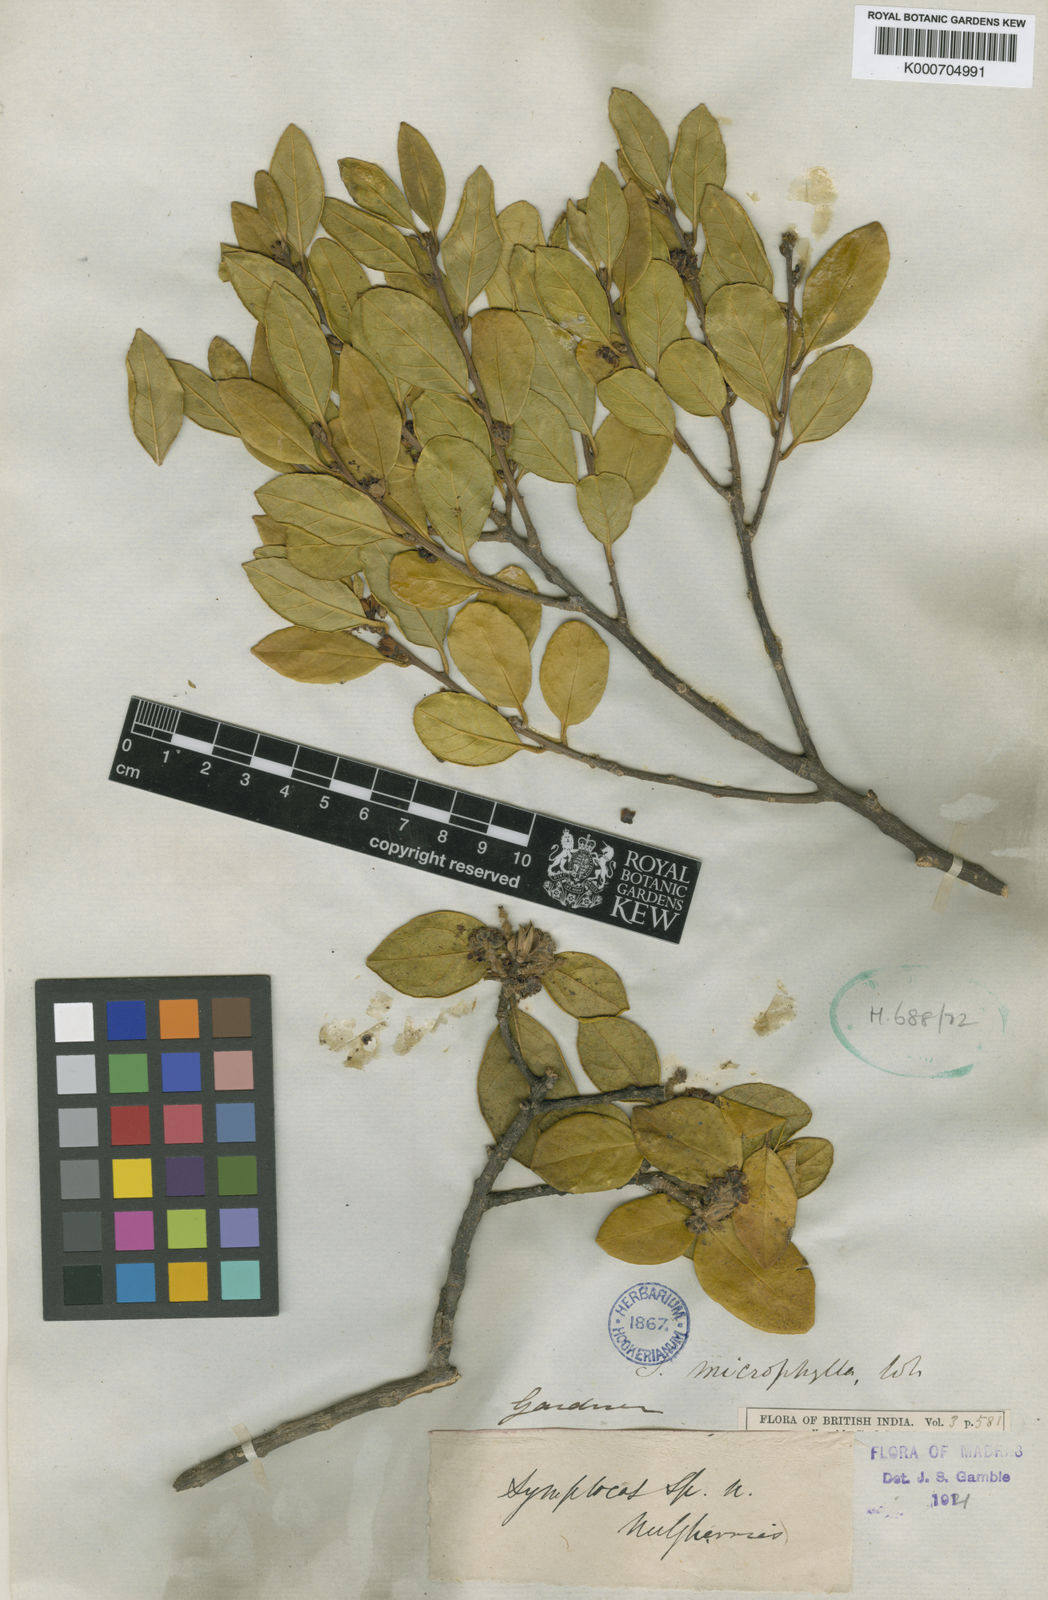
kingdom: Plantae
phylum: Tracheophyta
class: Magnoliopsida
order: Ericales
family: Symplocaceae
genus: Symplocos
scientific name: Symplocos
